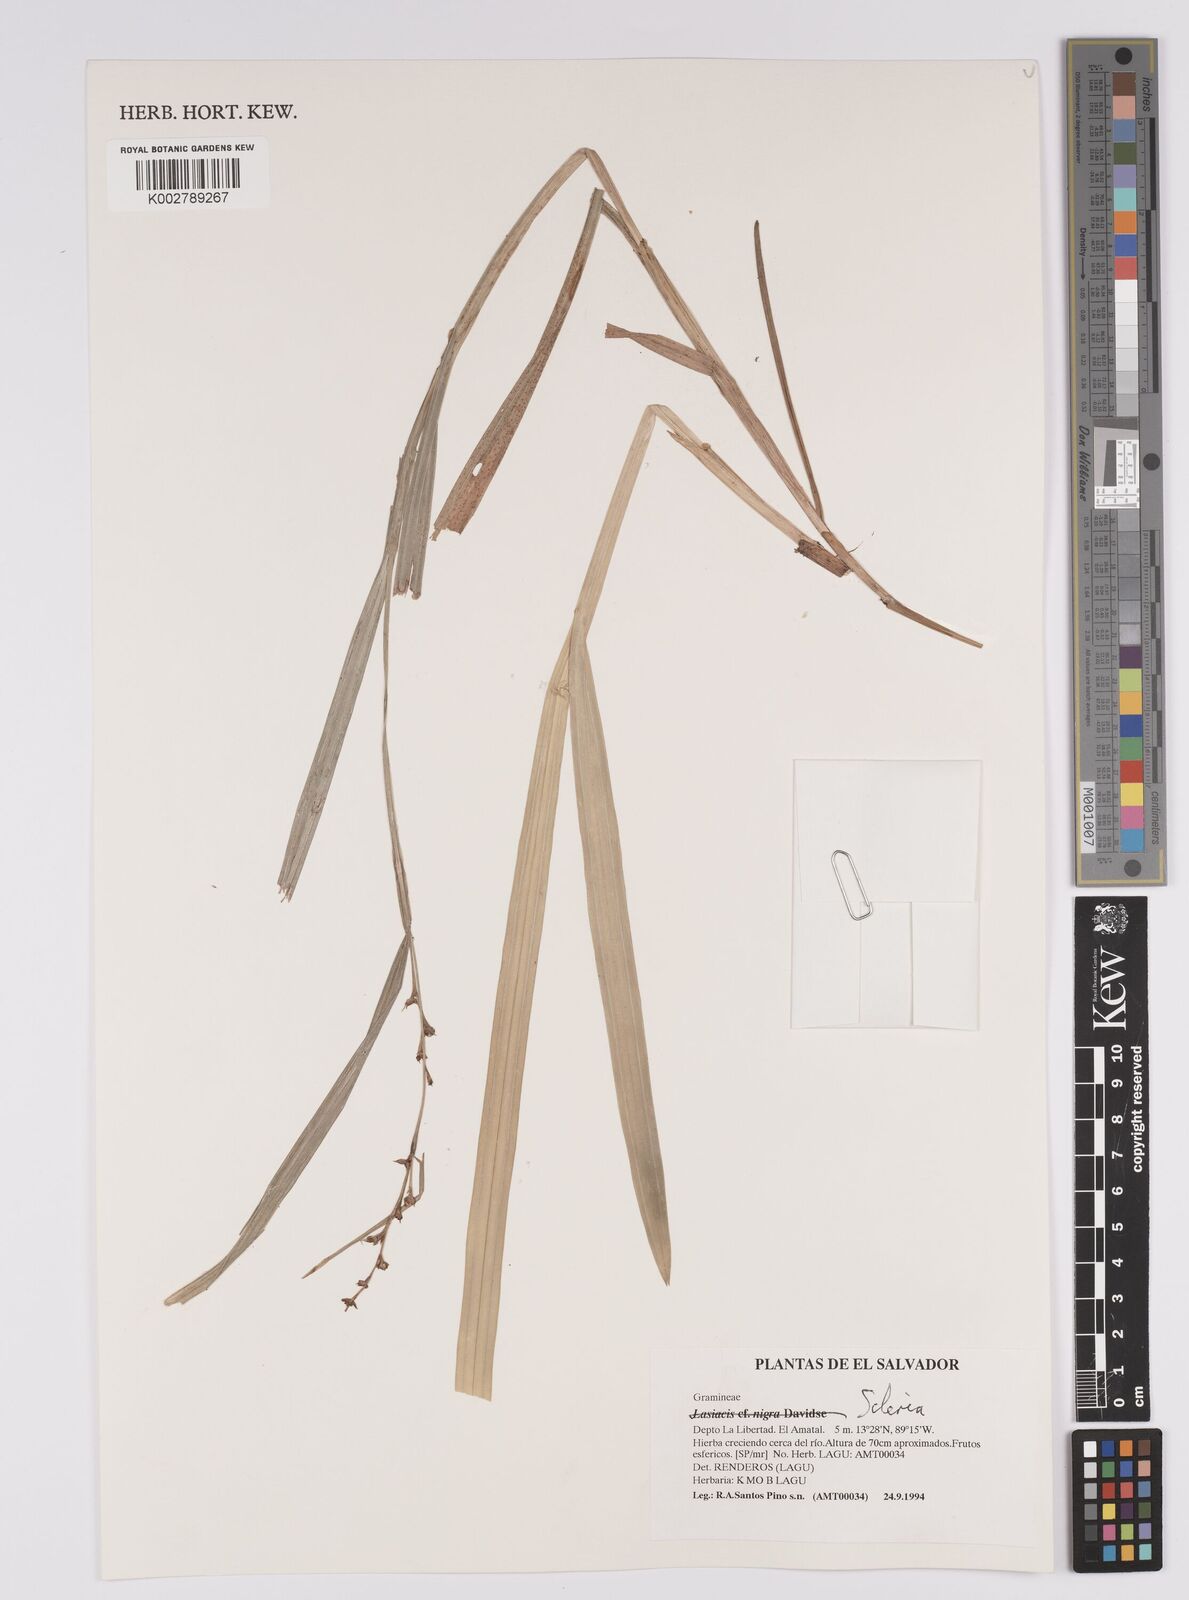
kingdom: Plantae
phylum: Tracheophyta
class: Liliopsida
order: Poales
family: Cyperaceae
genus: Scleria
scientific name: Scleria
